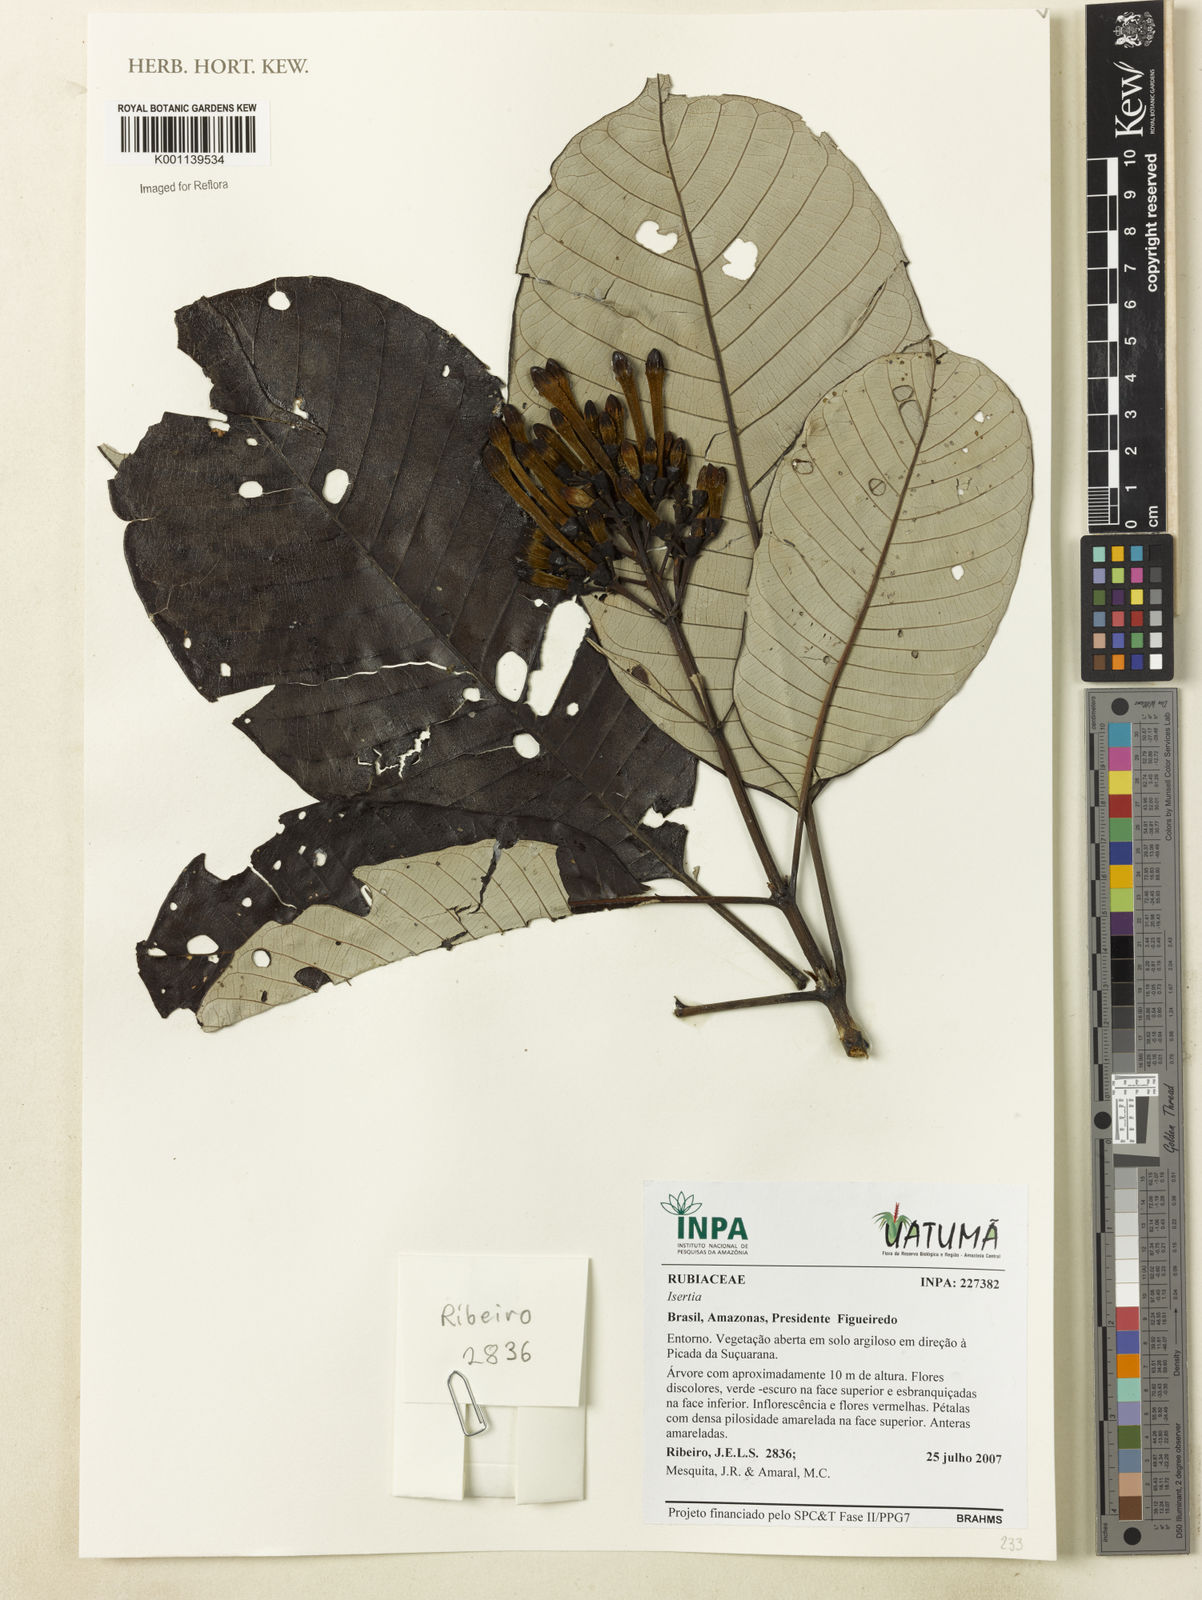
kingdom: Plantae
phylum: Tracheophyta
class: Magnoliopsida
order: Gentianales
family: Rubiaceae
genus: Isertia
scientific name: Isertia
